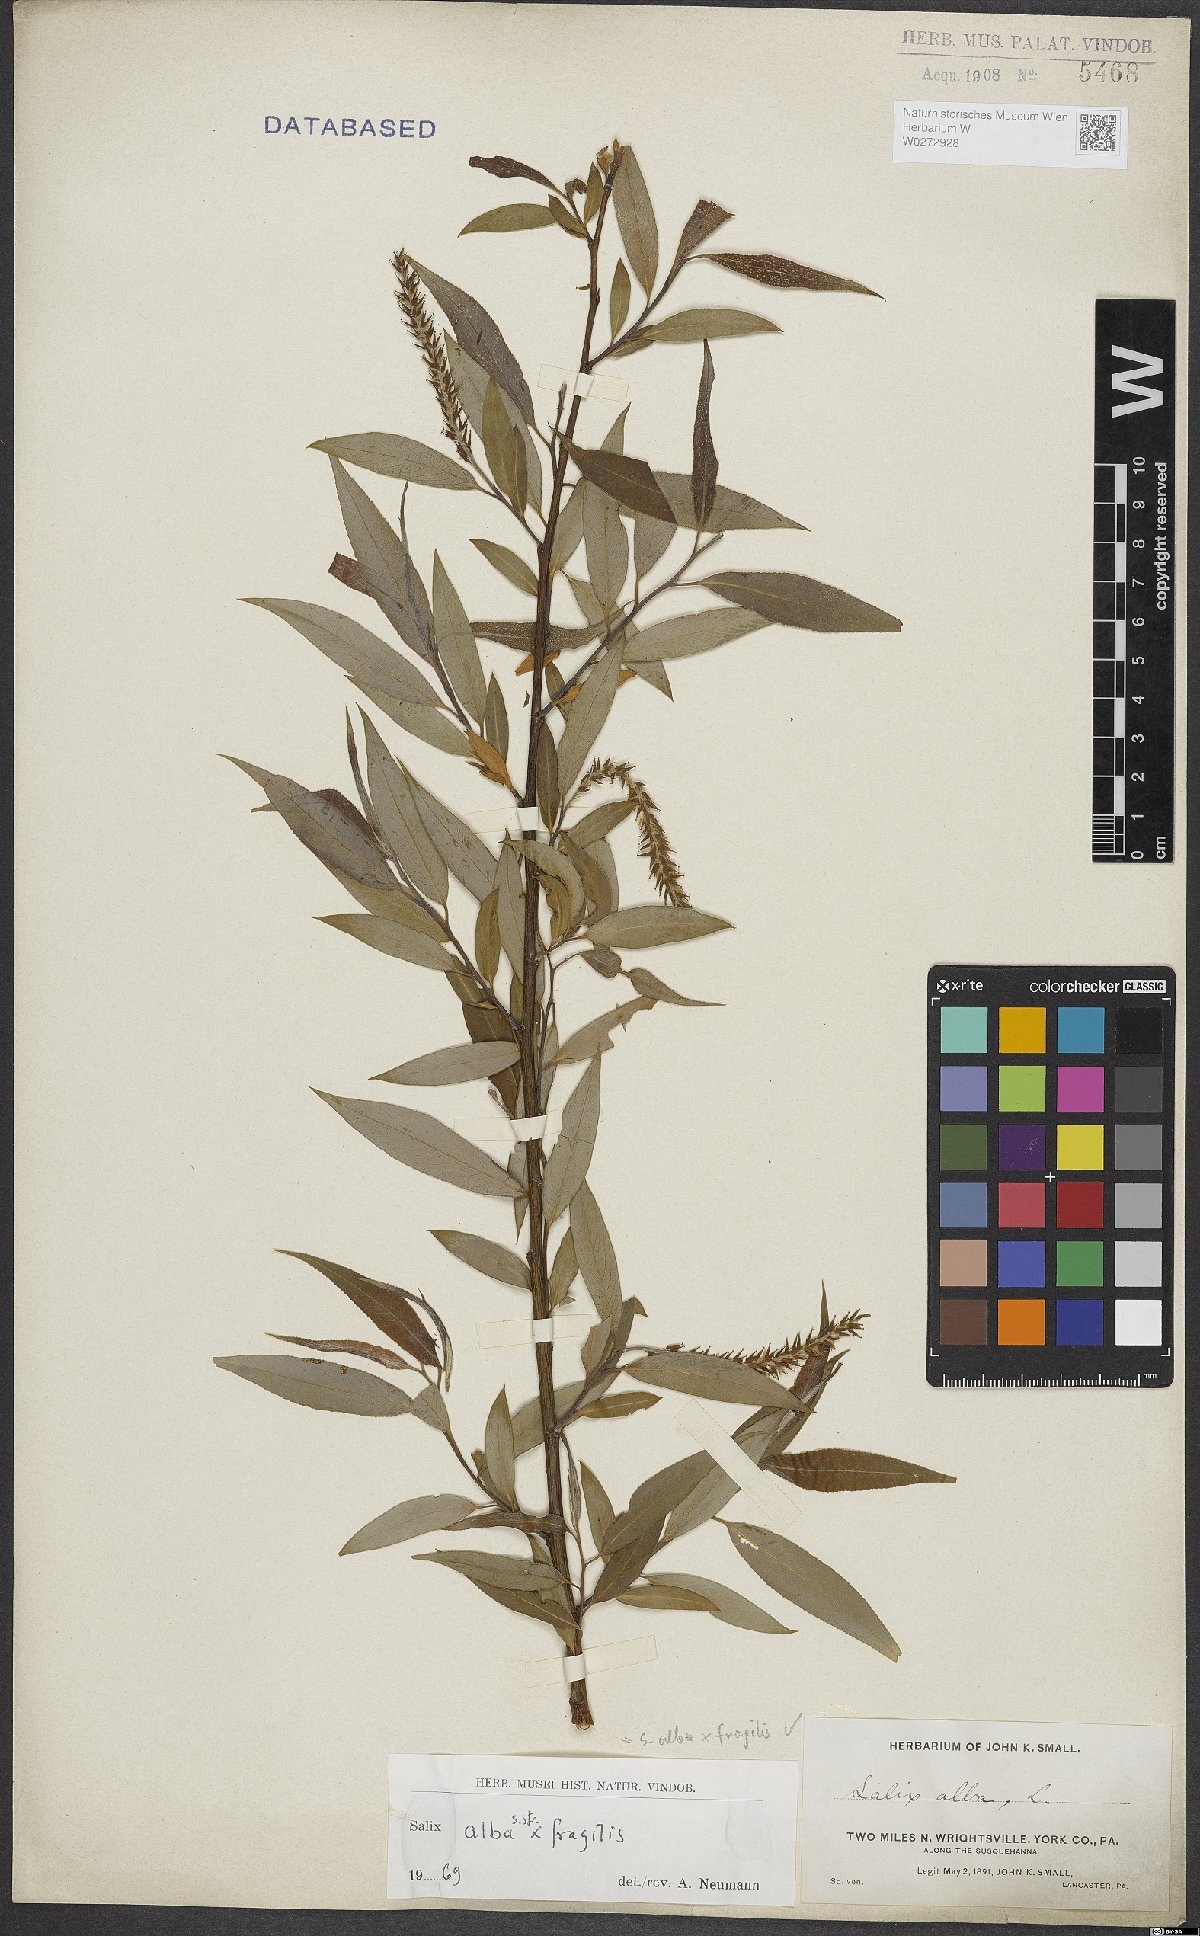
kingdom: Plantae
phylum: Tracheophyta
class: Magnoliopsida
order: Malpighiales
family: Salicaceae
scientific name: Salicaceae
